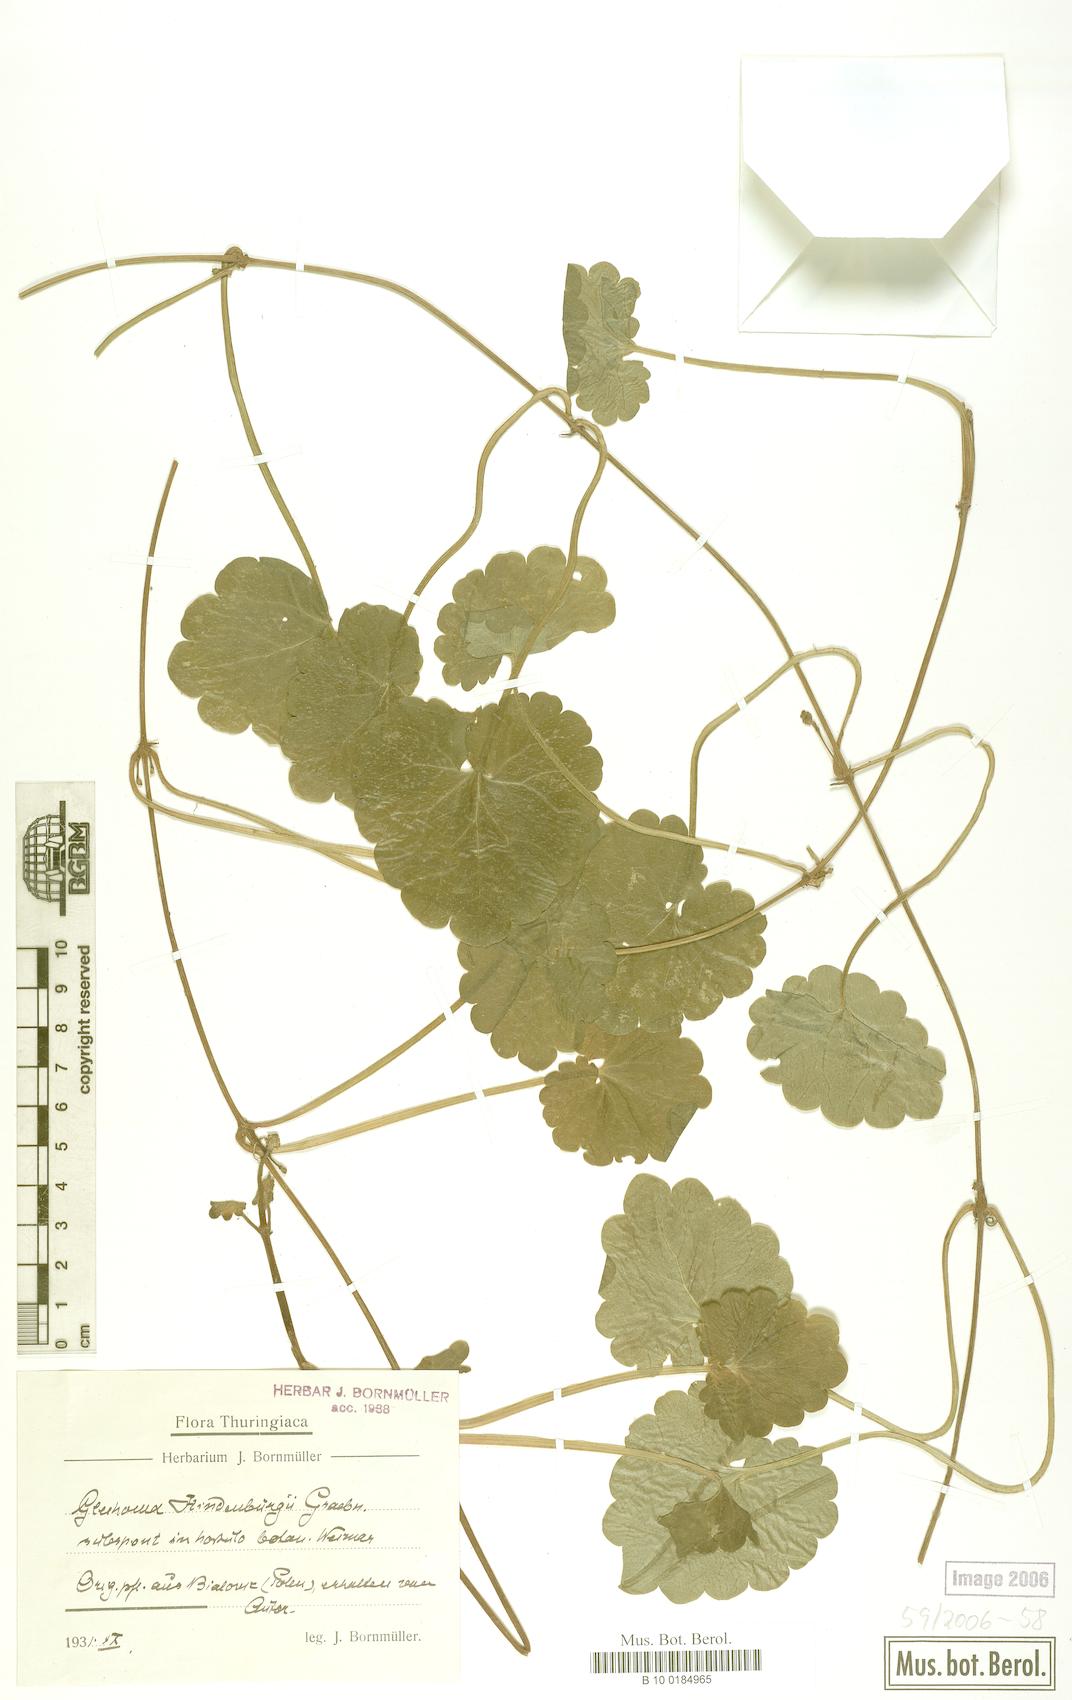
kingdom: Plantae
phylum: Tracheophyta
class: Magnoliopsida
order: Lamiales
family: Lamiaceae
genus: Glechoma
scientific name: Glechoma pannonica
